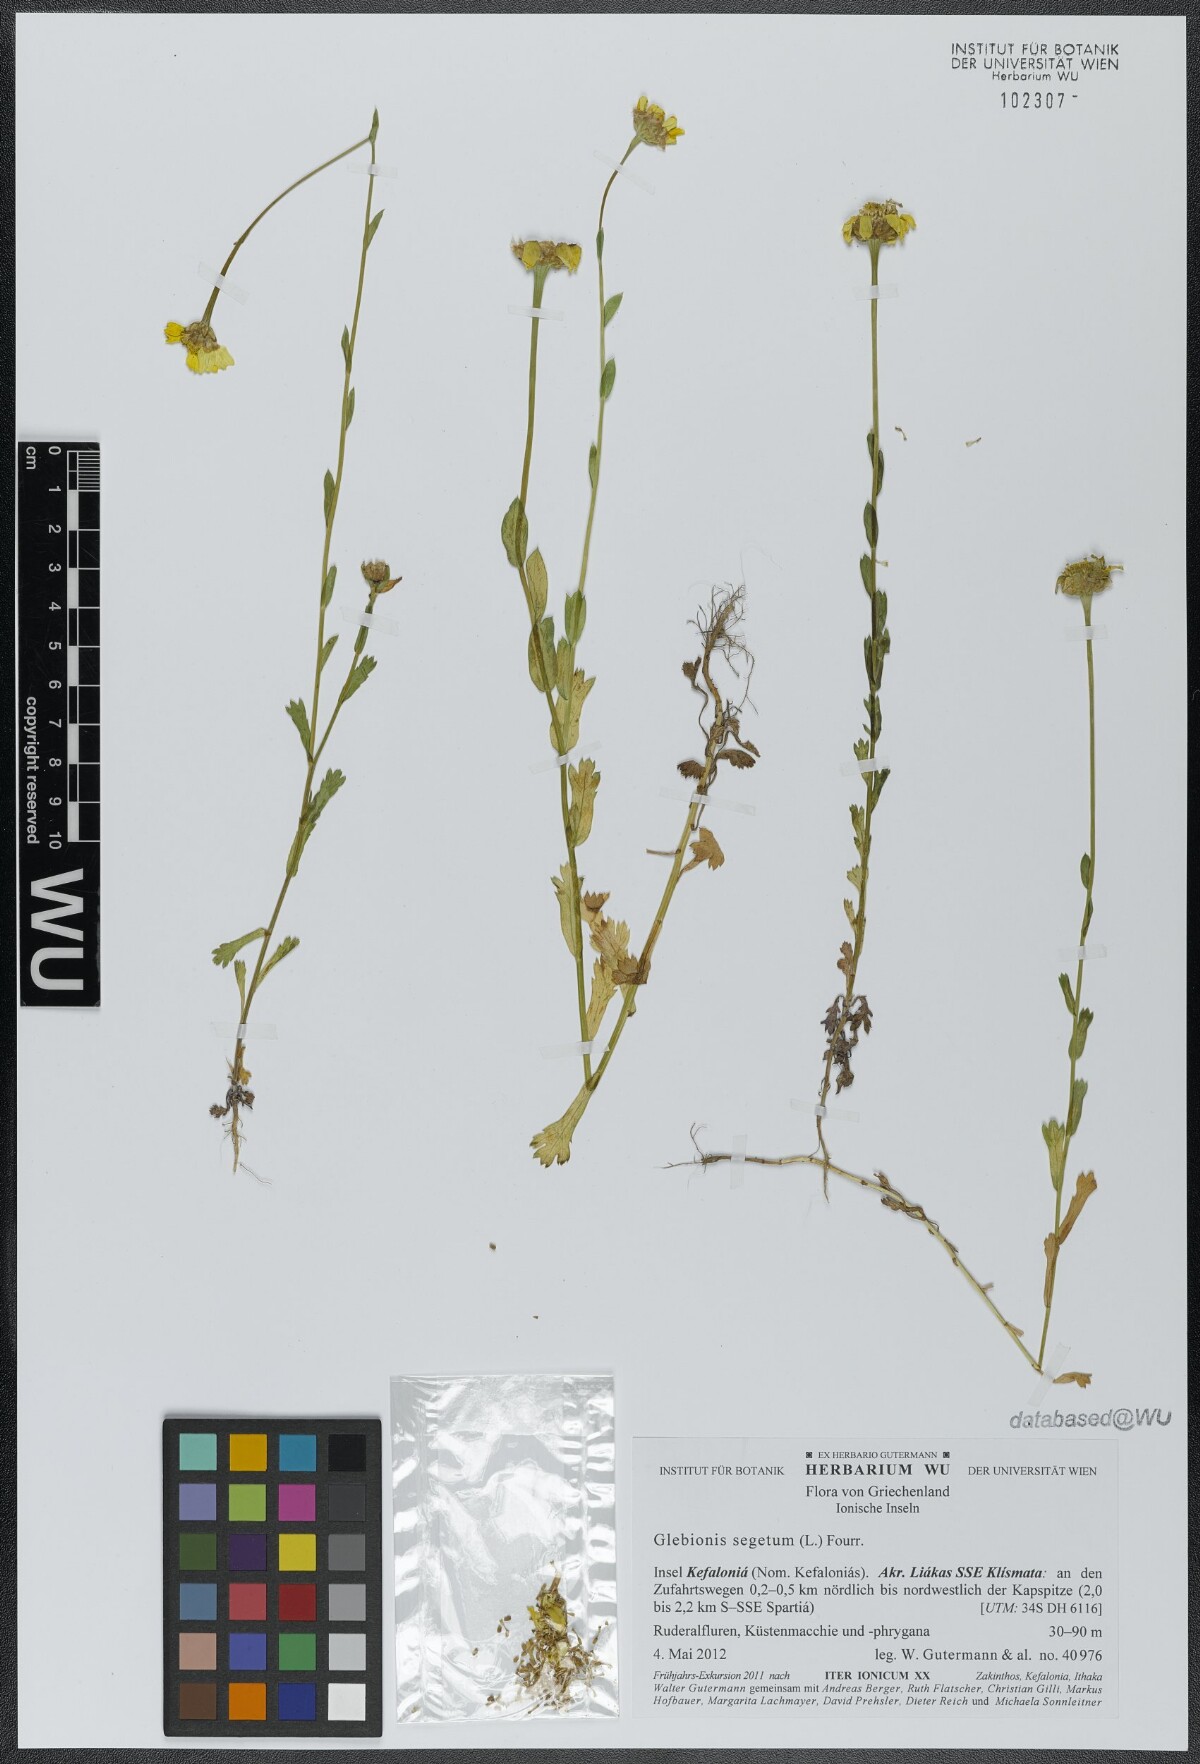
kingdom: Plantae
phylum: Tracheophyta
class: Magnoliopsida
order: Asterales
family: Asteraceae
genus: Glebionis
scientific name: Glebionis segetum
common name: Corndaisy
